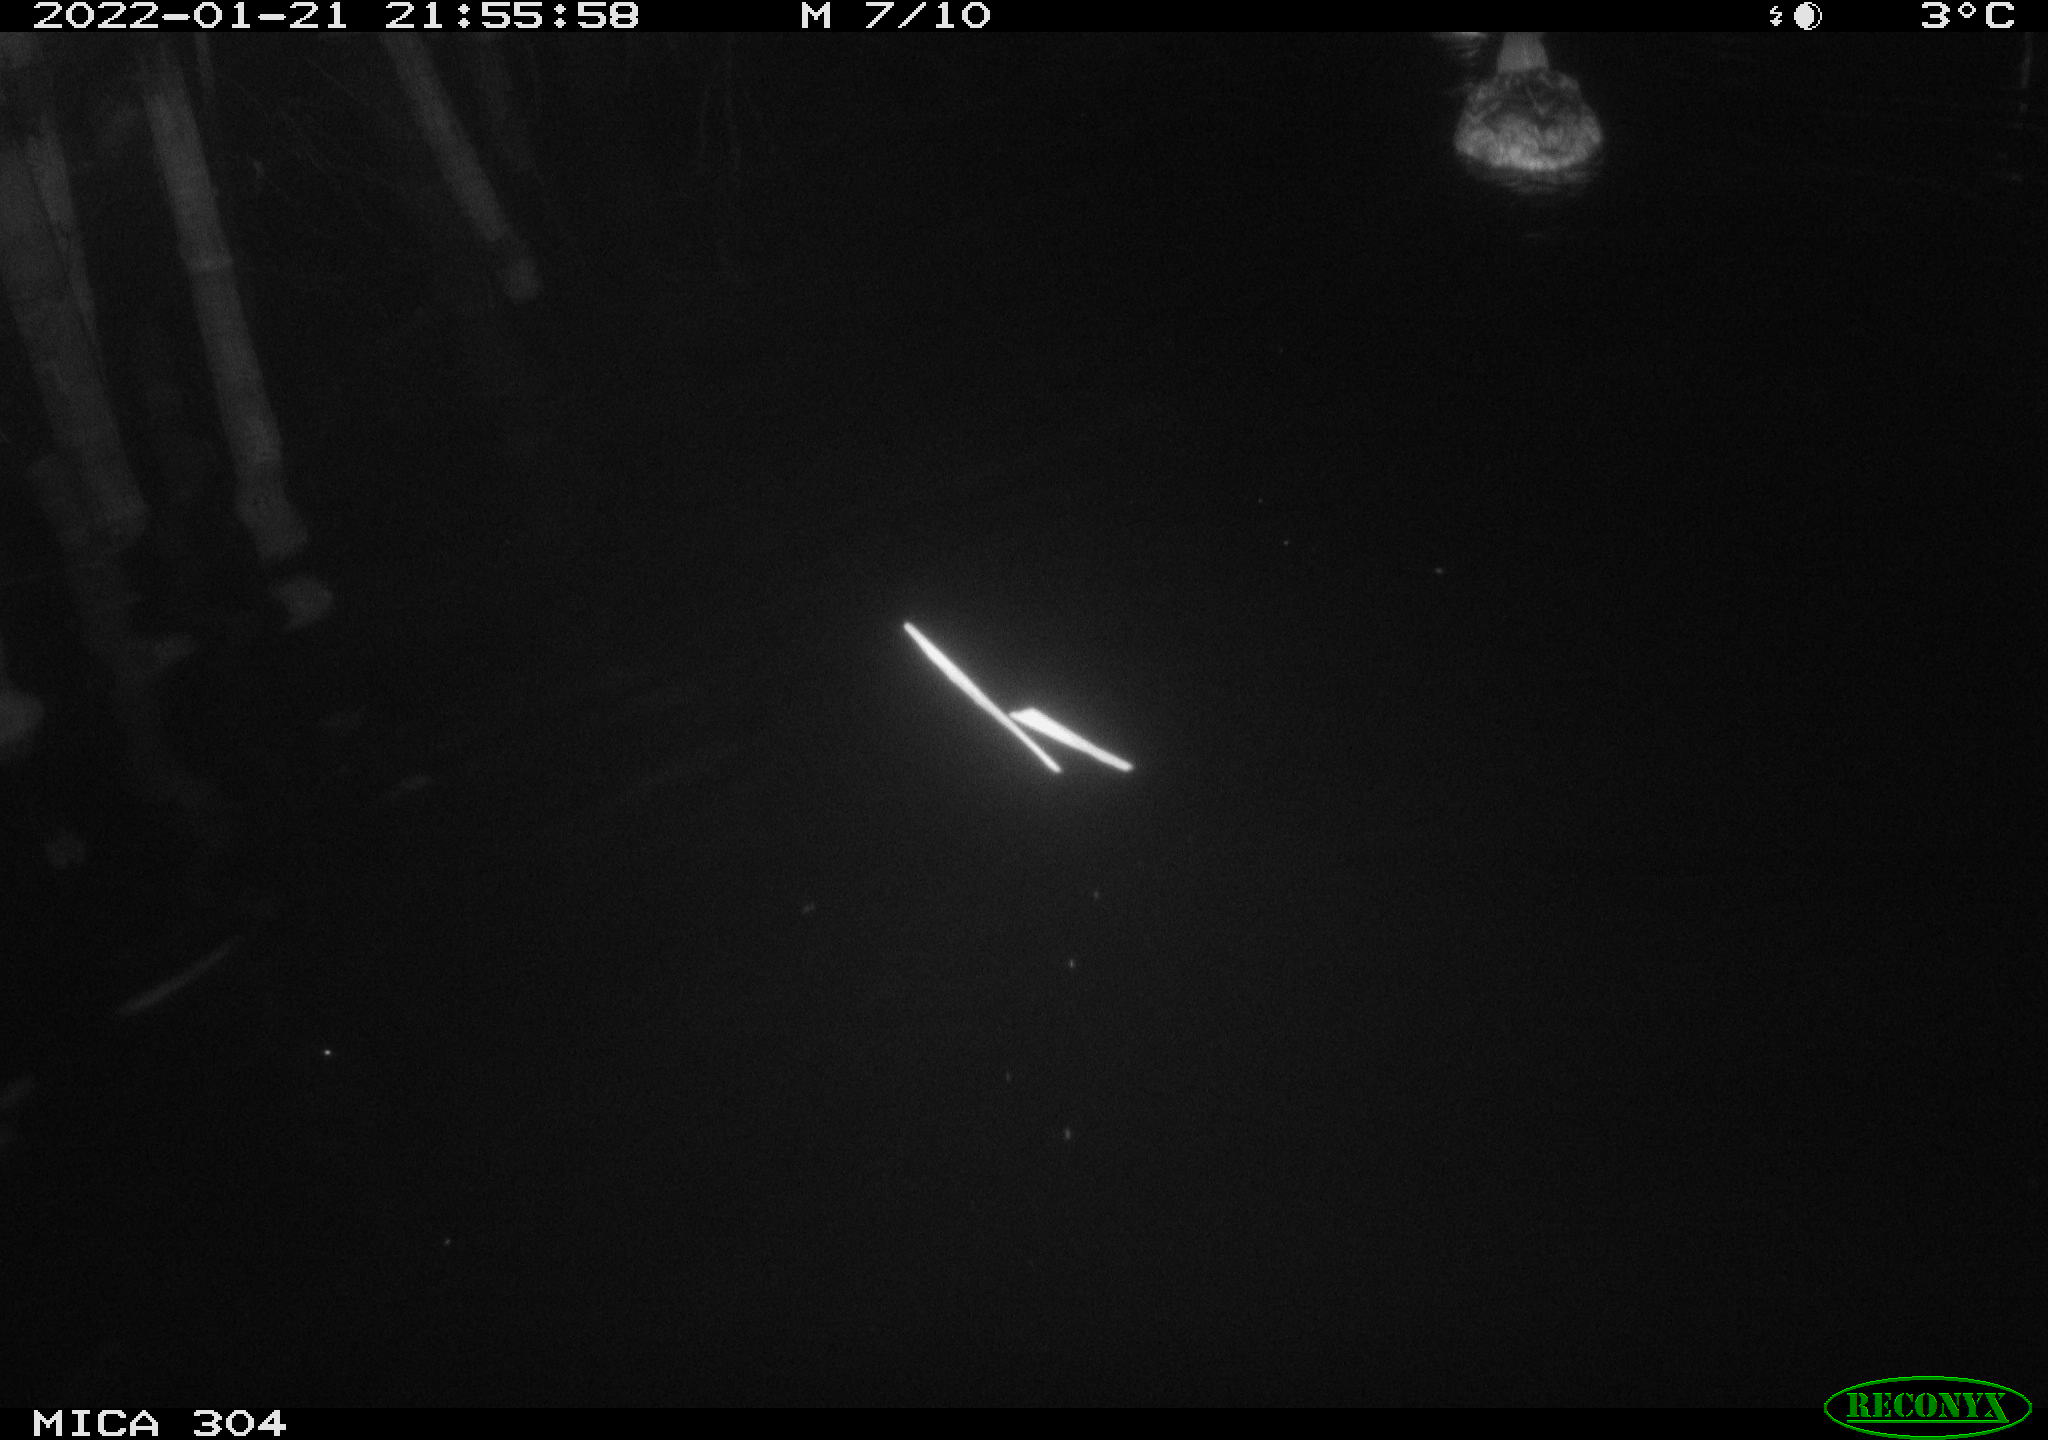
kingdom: Animalia
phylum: Chordata
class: Aves
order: Anseriformes
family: Anatidae
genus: Anas
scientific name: Anas
